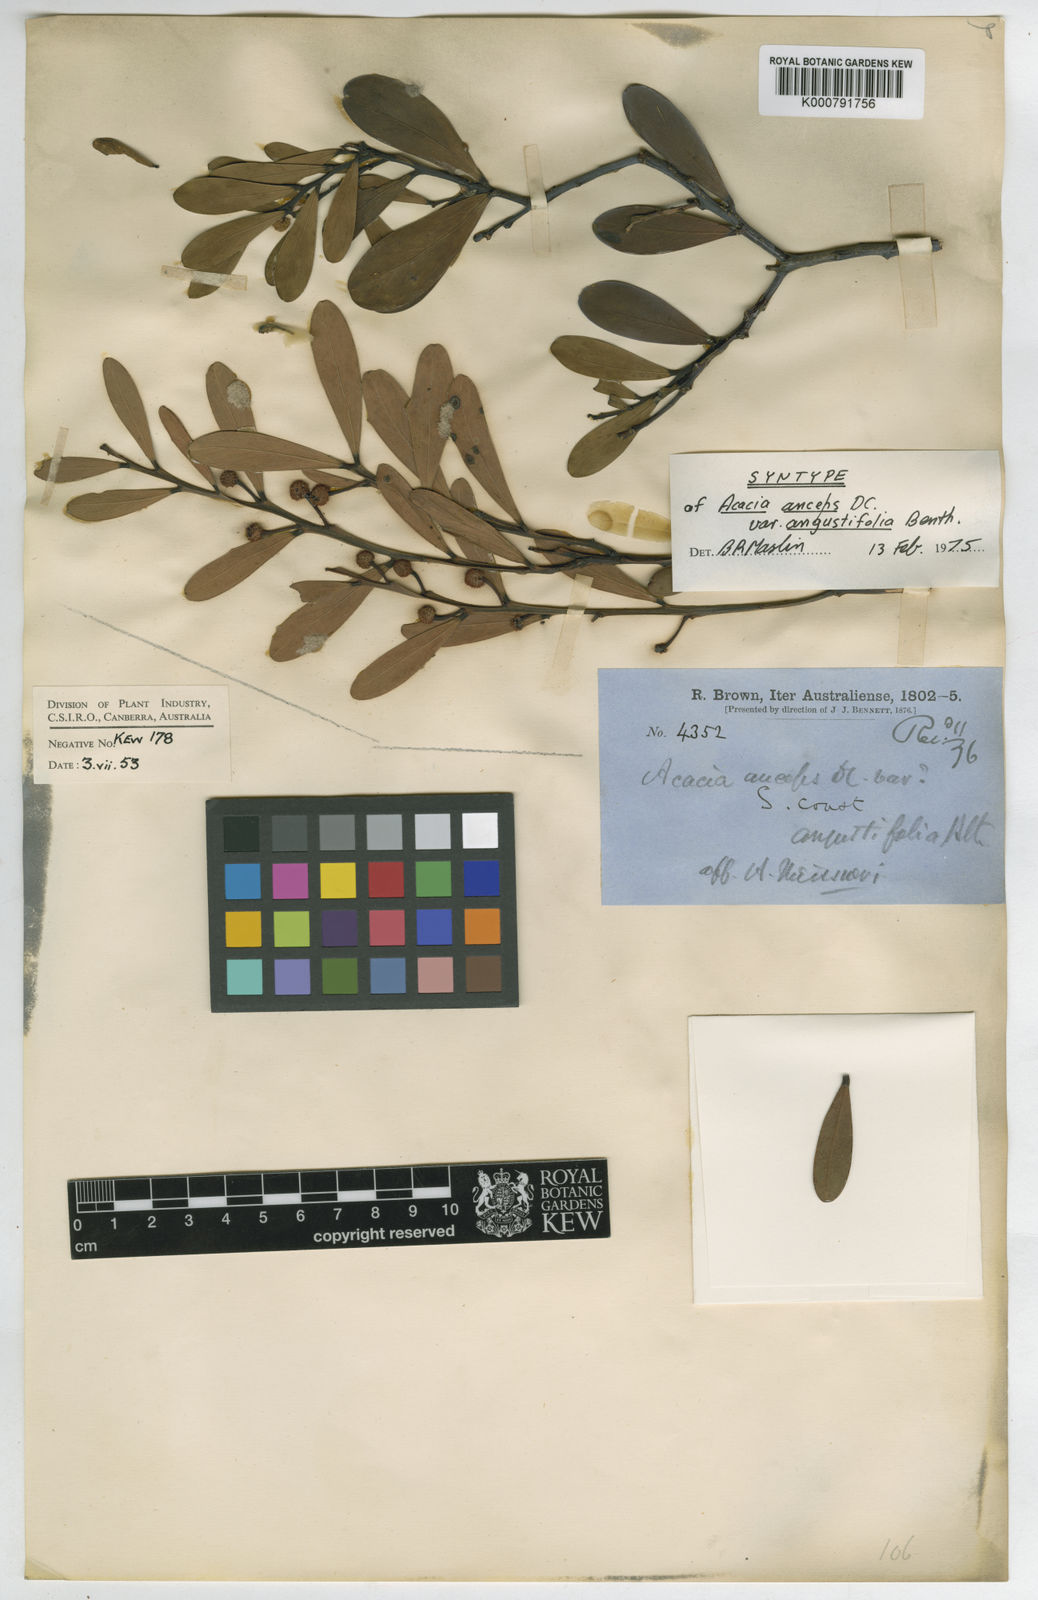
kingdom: Plantae
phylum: Tracheophyta
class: Magnoliopsida
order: Fabales
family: Fabaceae
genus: Acacia
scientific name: Acacia anceps
